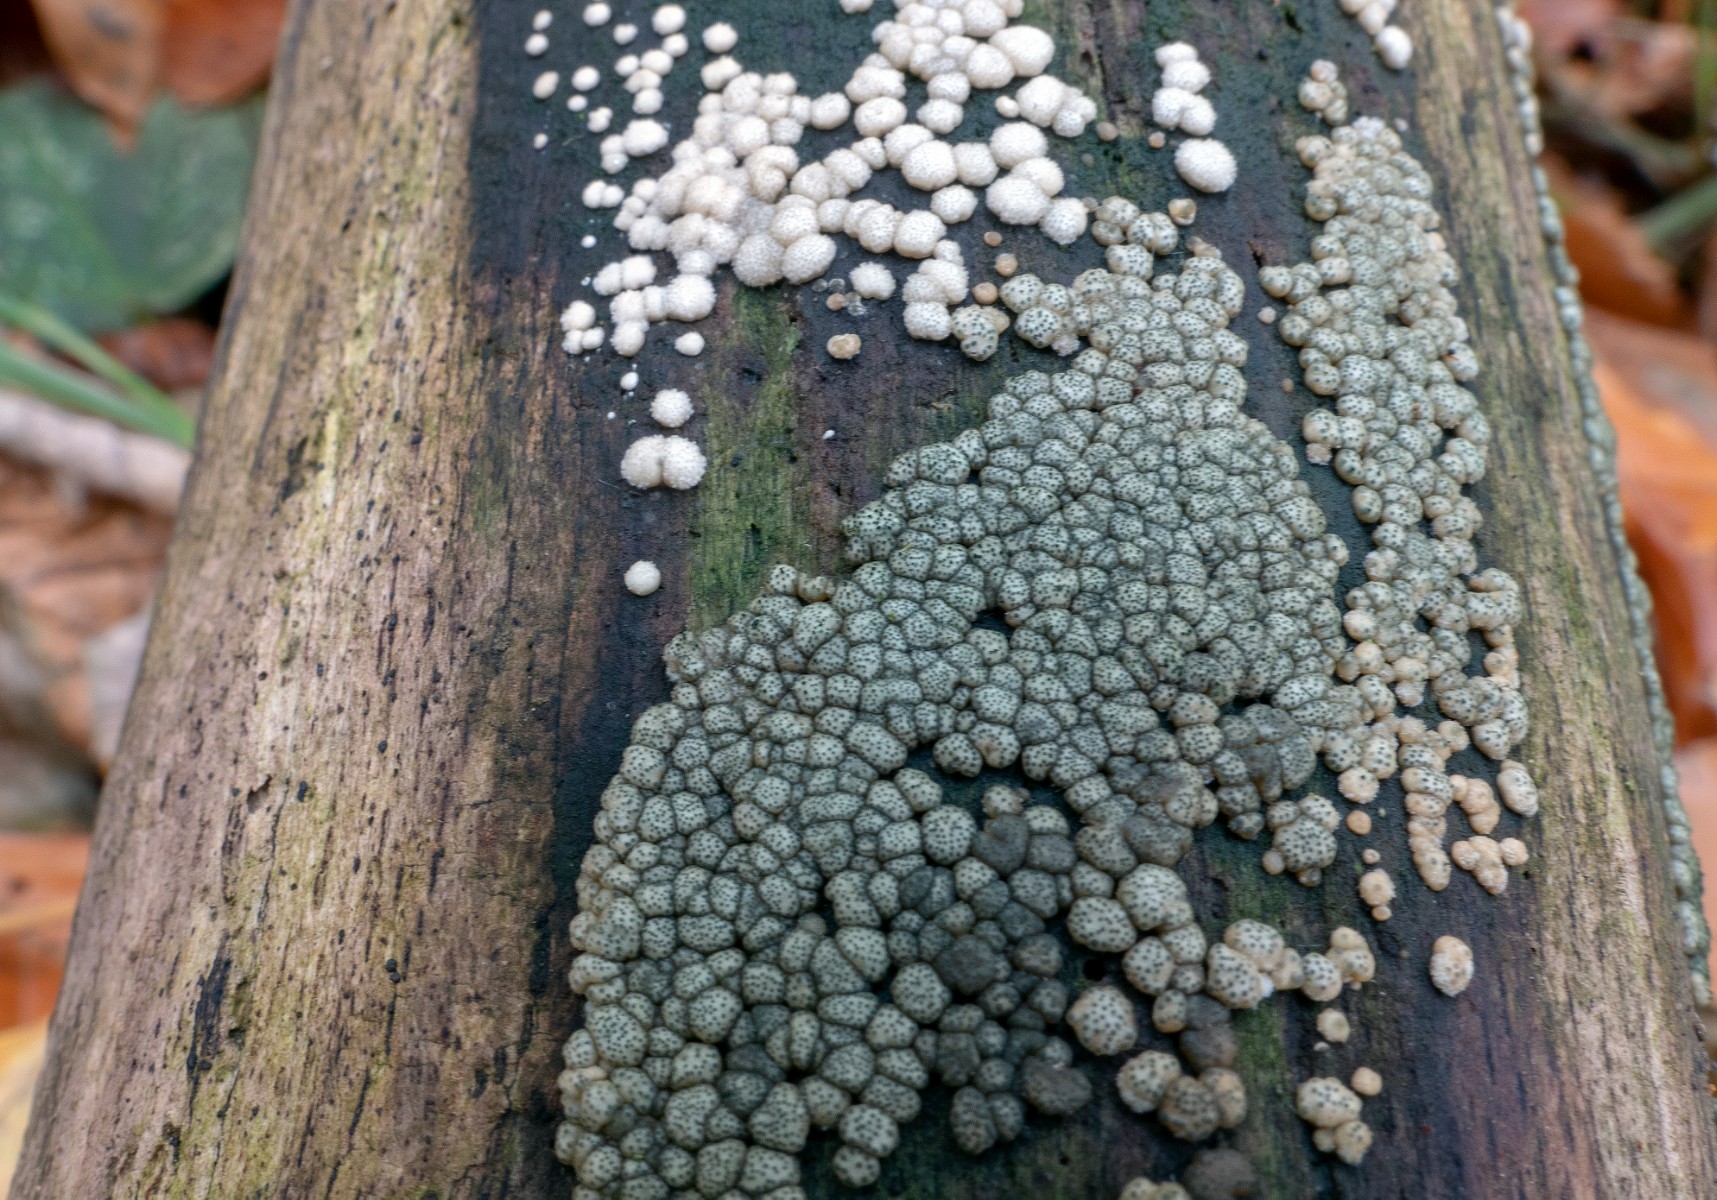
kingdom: Fungi
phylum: Ascomycota
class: Sordariomycetes
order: Hypocreales
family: Hypocreaceae
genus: Trichoderma
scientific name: Trichoderma strictipile
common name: grønprikket kødkerne
